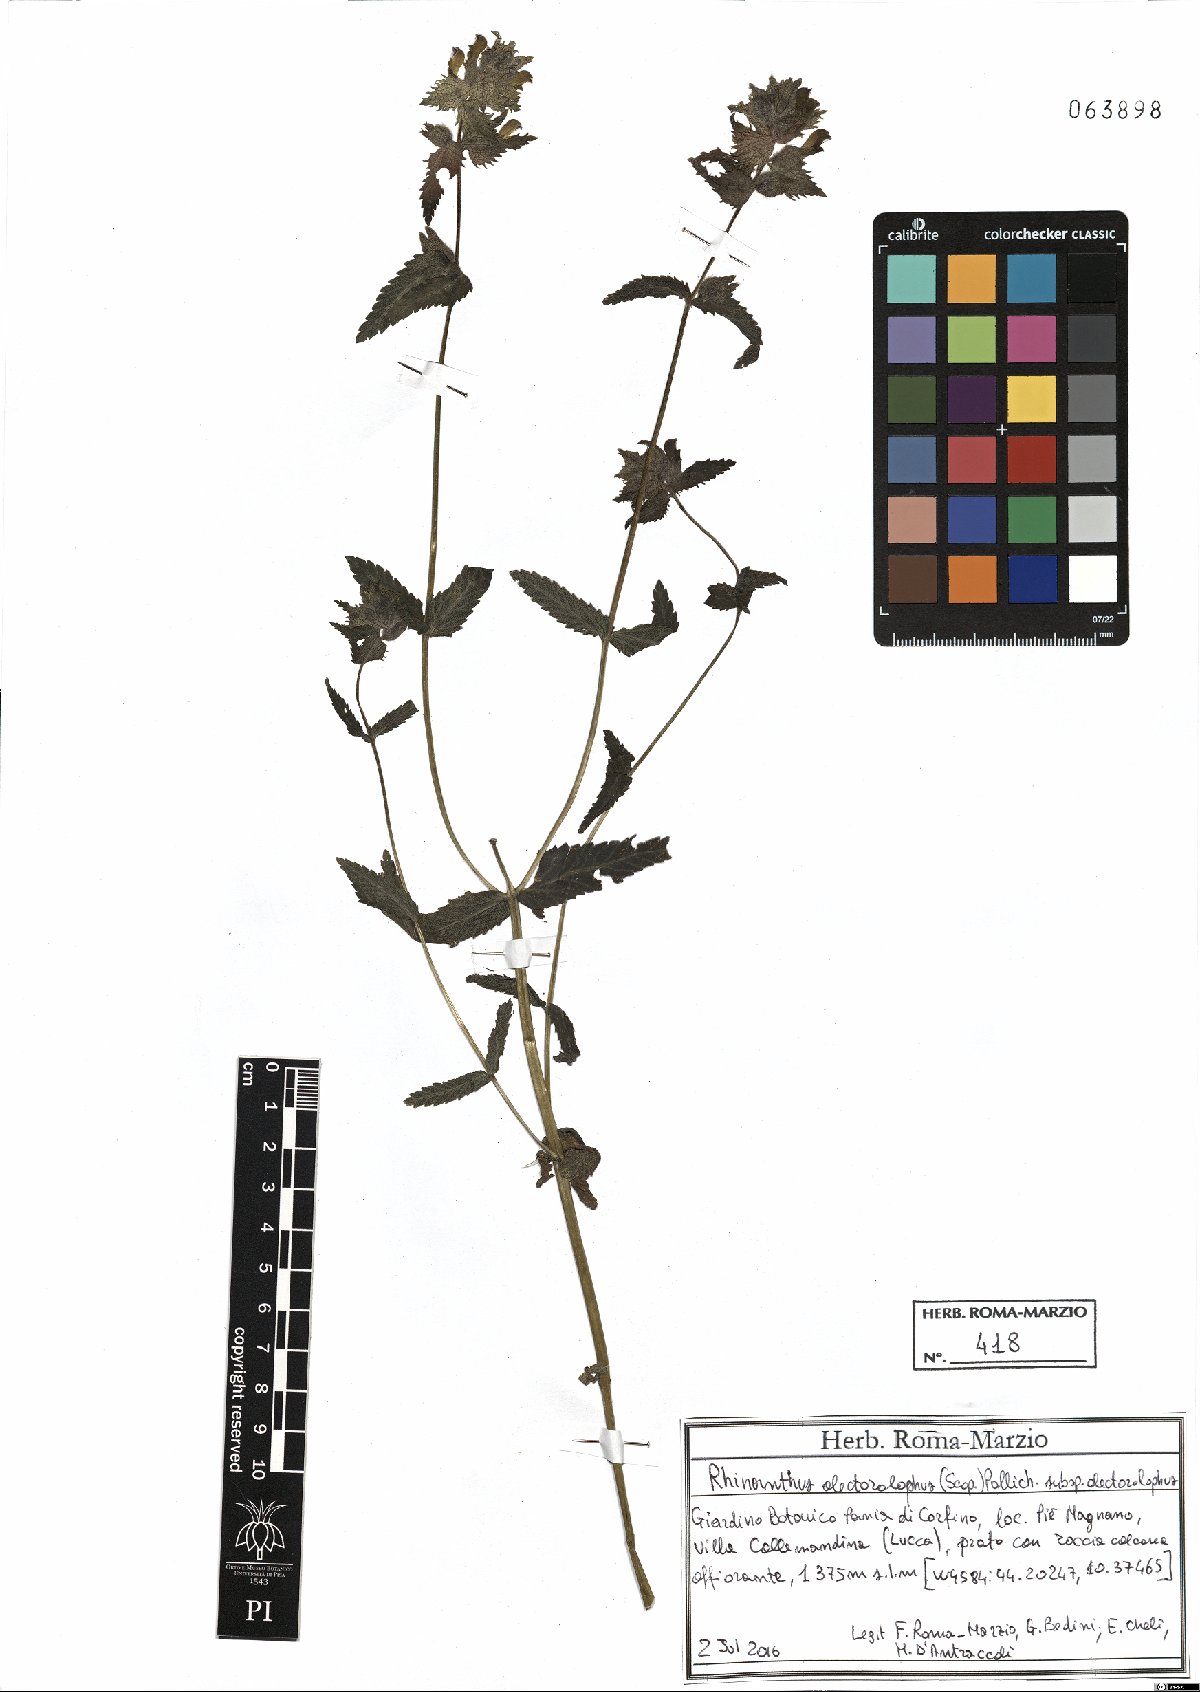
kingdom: Plantae
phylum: Tracheophyta
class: Magnoliopsida
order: Lamiales
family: Orobanchaceae
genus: Rhinanthus
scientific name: Rhinanthus alectorolophus
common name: Greater yellow-rattle
